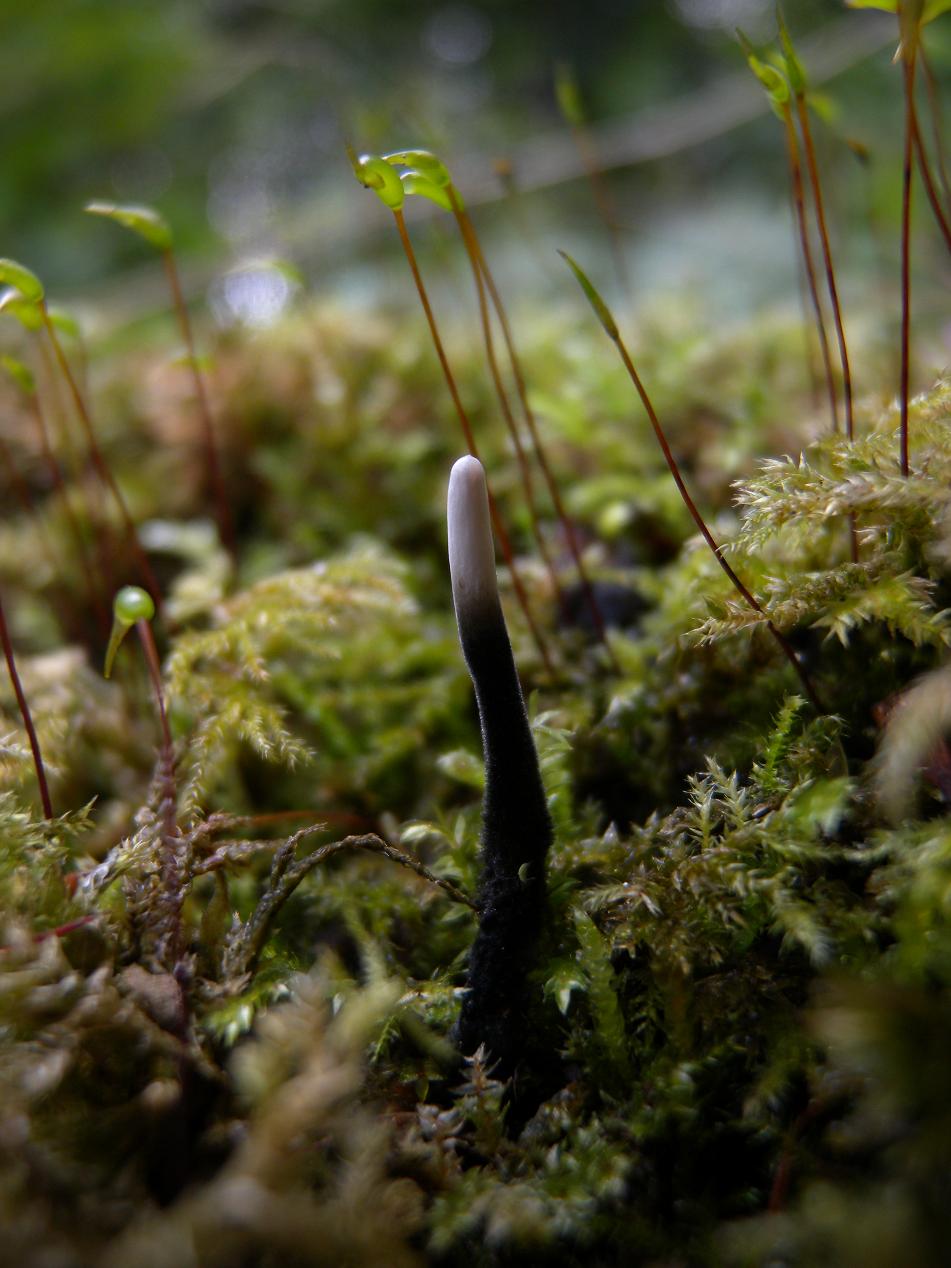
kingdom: Fungi
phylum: Ascomycota
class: Sordariomycetes
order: Xylariales
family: Xylariaceae
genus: Xylaria
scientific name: Xylaria hypoxylon
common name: grenet stødsvamp
